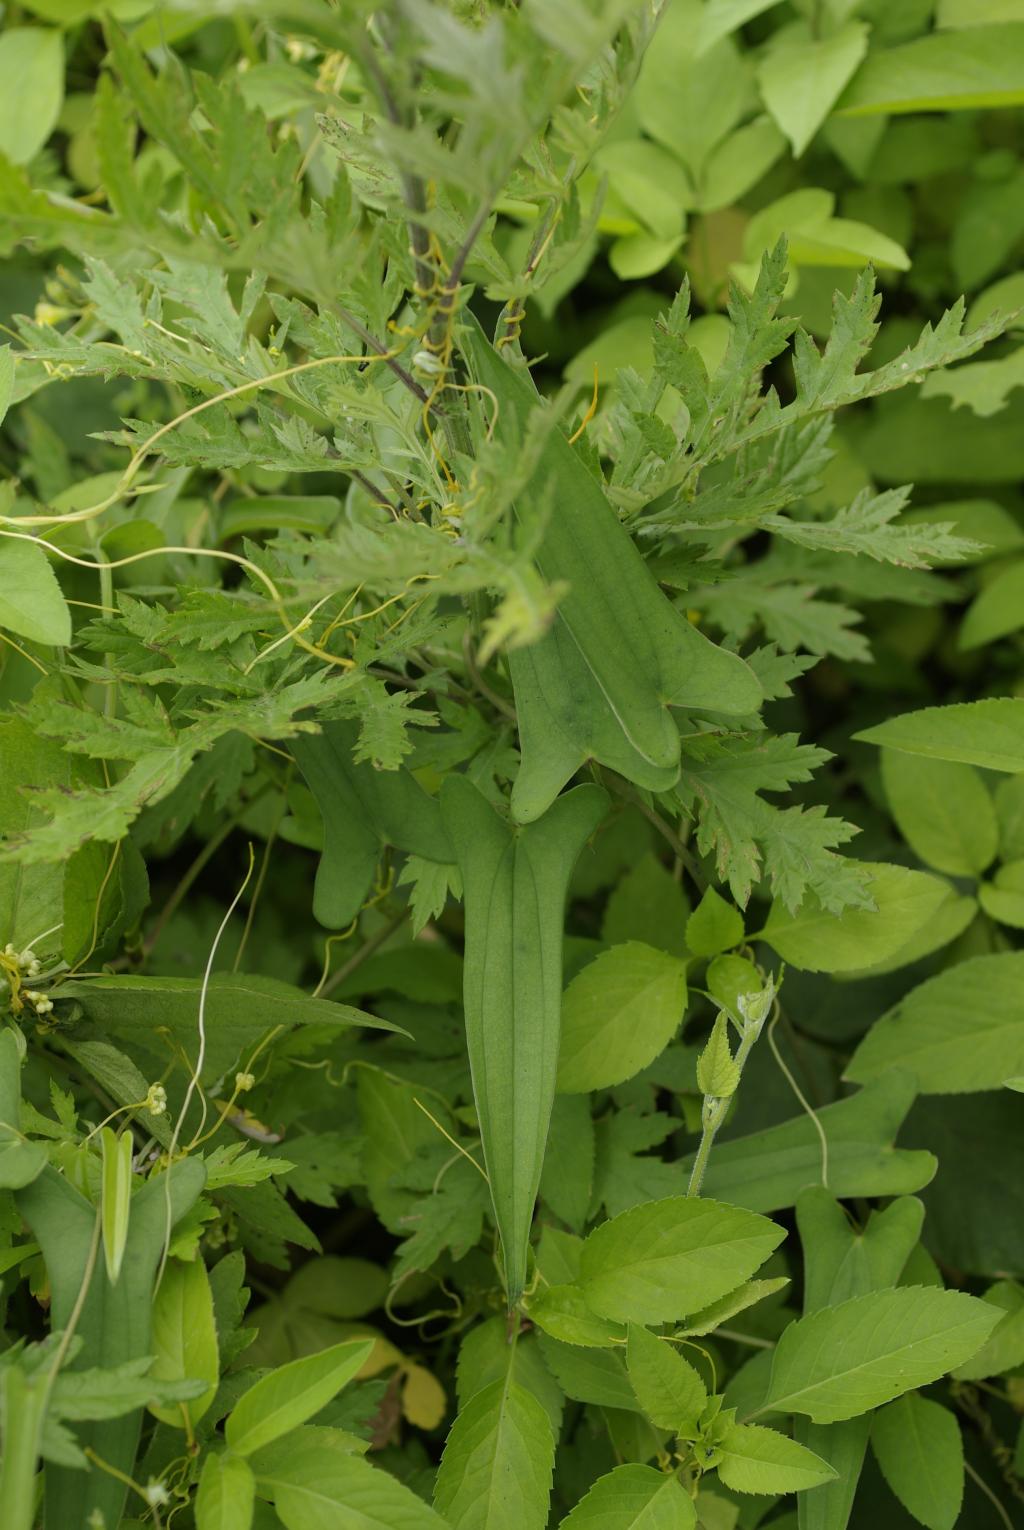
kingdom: Plantae
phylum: Tracheophyta
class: Liliopsida
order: Dioscoreales
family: Dioscoreaceae
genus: Dioscorea
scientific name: Dioscorea japonica
